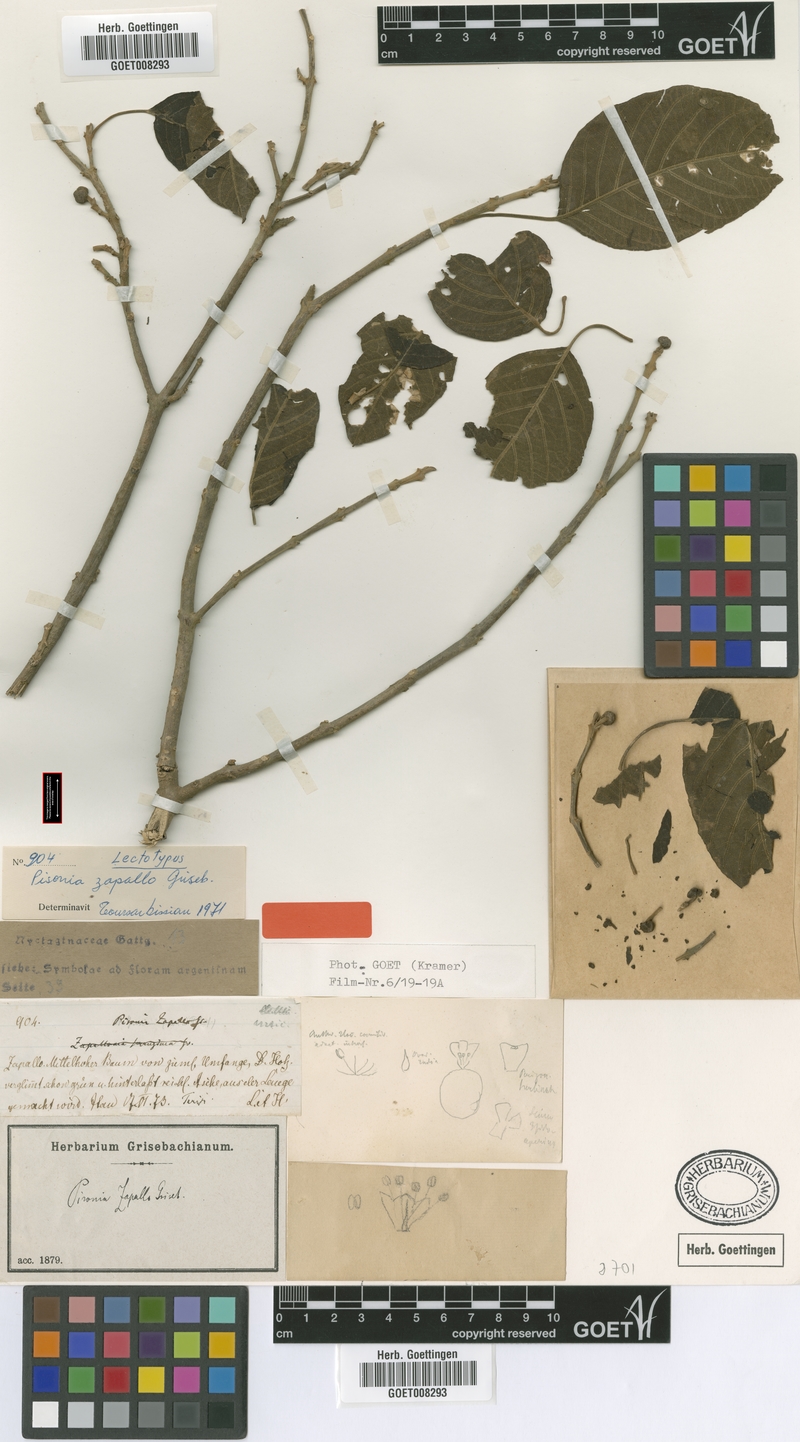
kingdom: Plantae
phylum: Tracheophyta
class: Magnoliopsida
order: Caryophyllales
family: Nyctaginaceae
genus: Pisonia
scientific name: Pisonia zapallo
